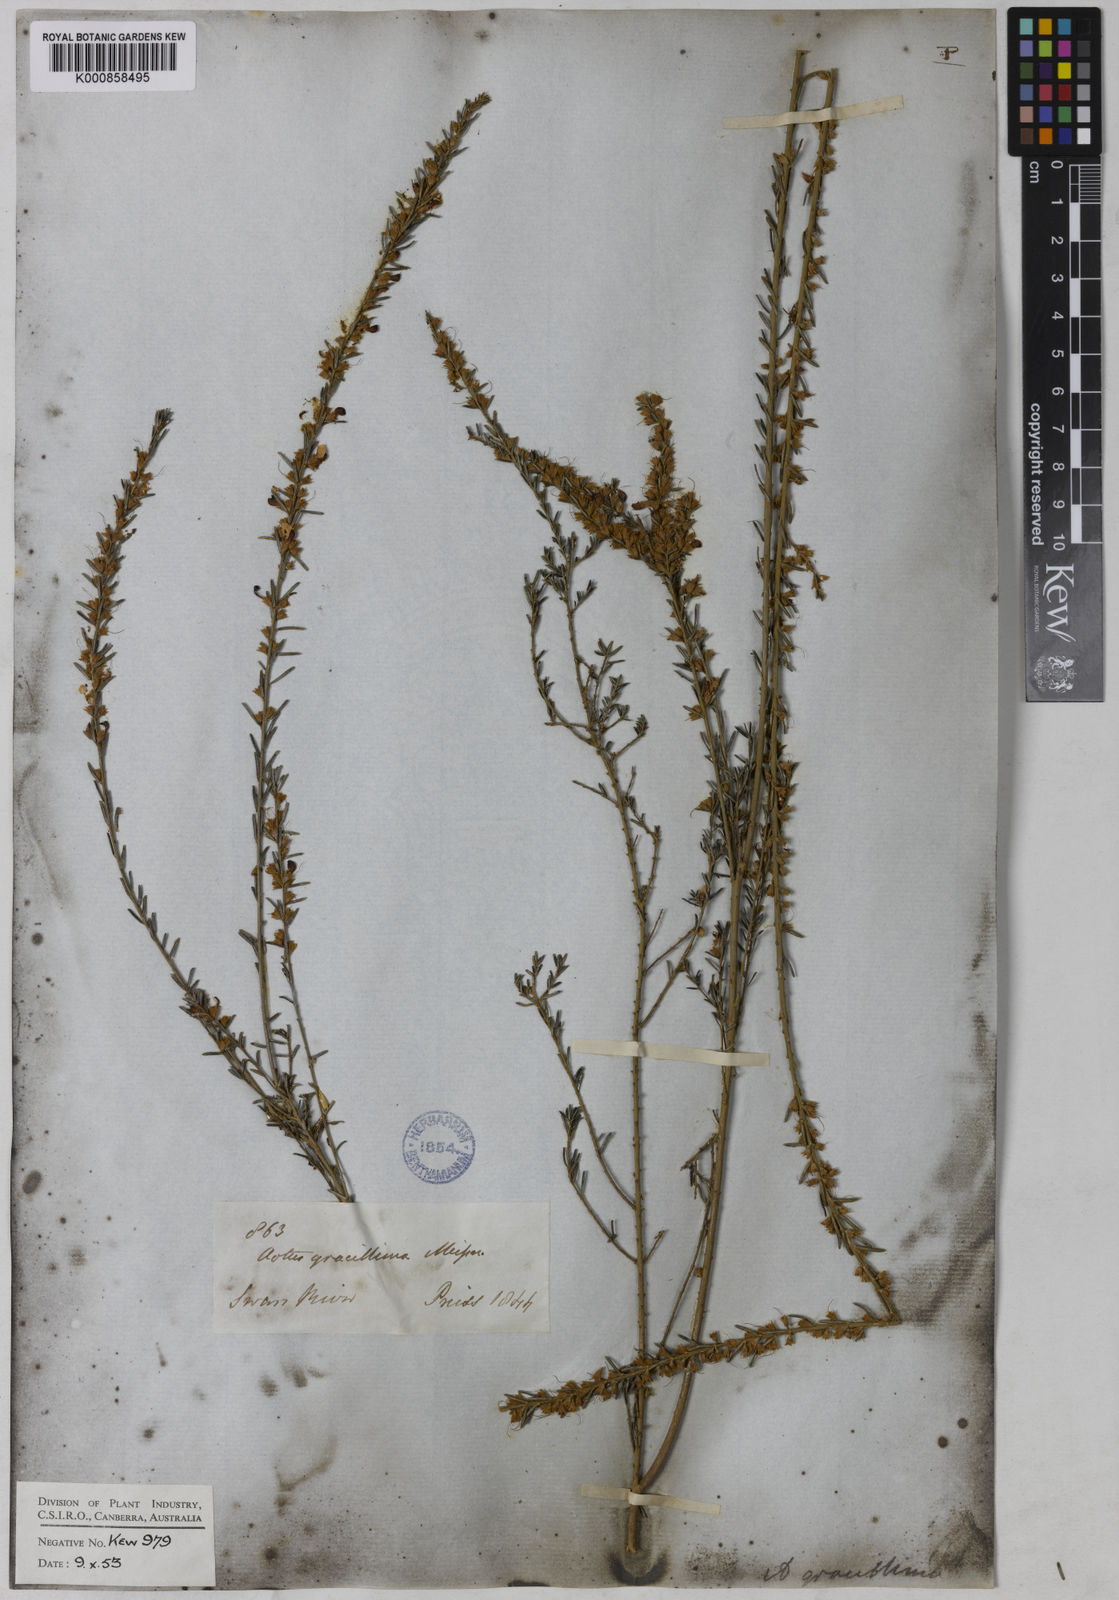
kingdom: Plantae
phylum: Tracheophyta
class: Magnoliopsida
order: Fabales
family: Fabaceae
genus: Aotus
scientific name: Aotus gracillima
